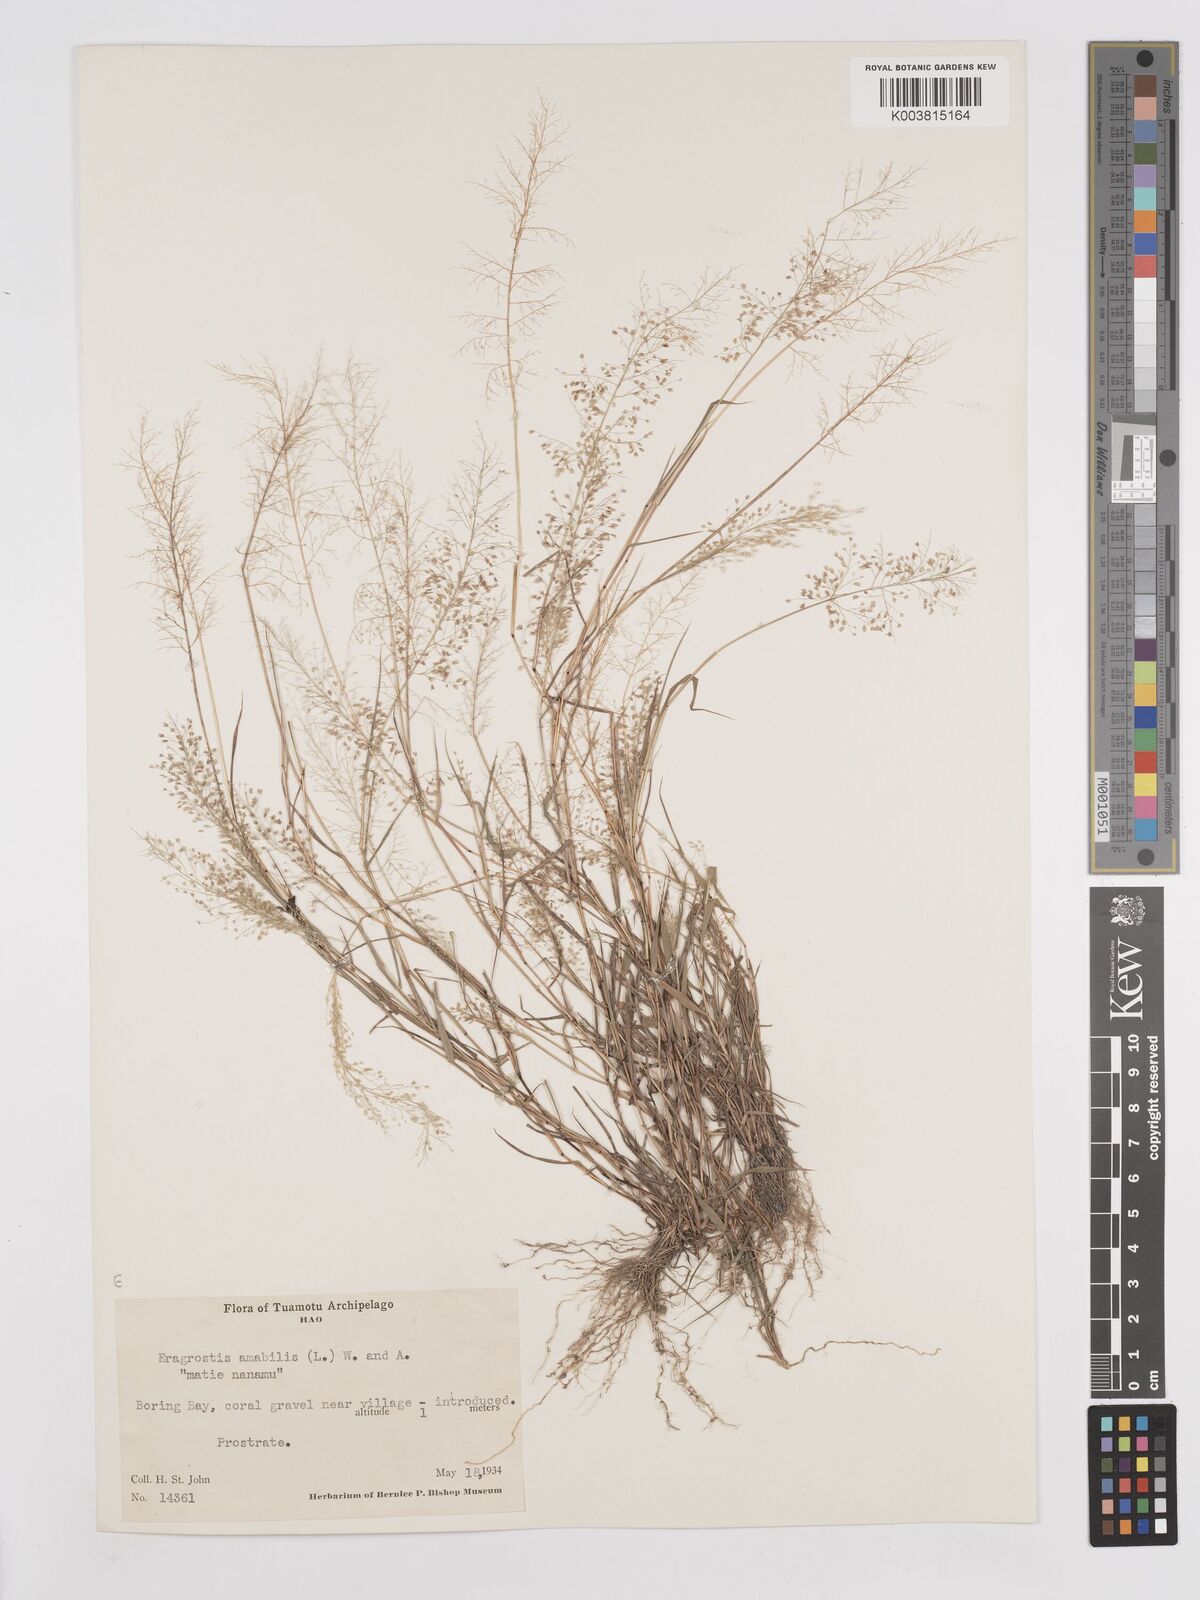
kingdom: Plantae
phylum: Tracheophyta
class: Liliopsida
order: Poales
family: Poaceae
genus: Eragrostis
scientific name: Eragrostis tenella
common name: Japanese lovegrass
